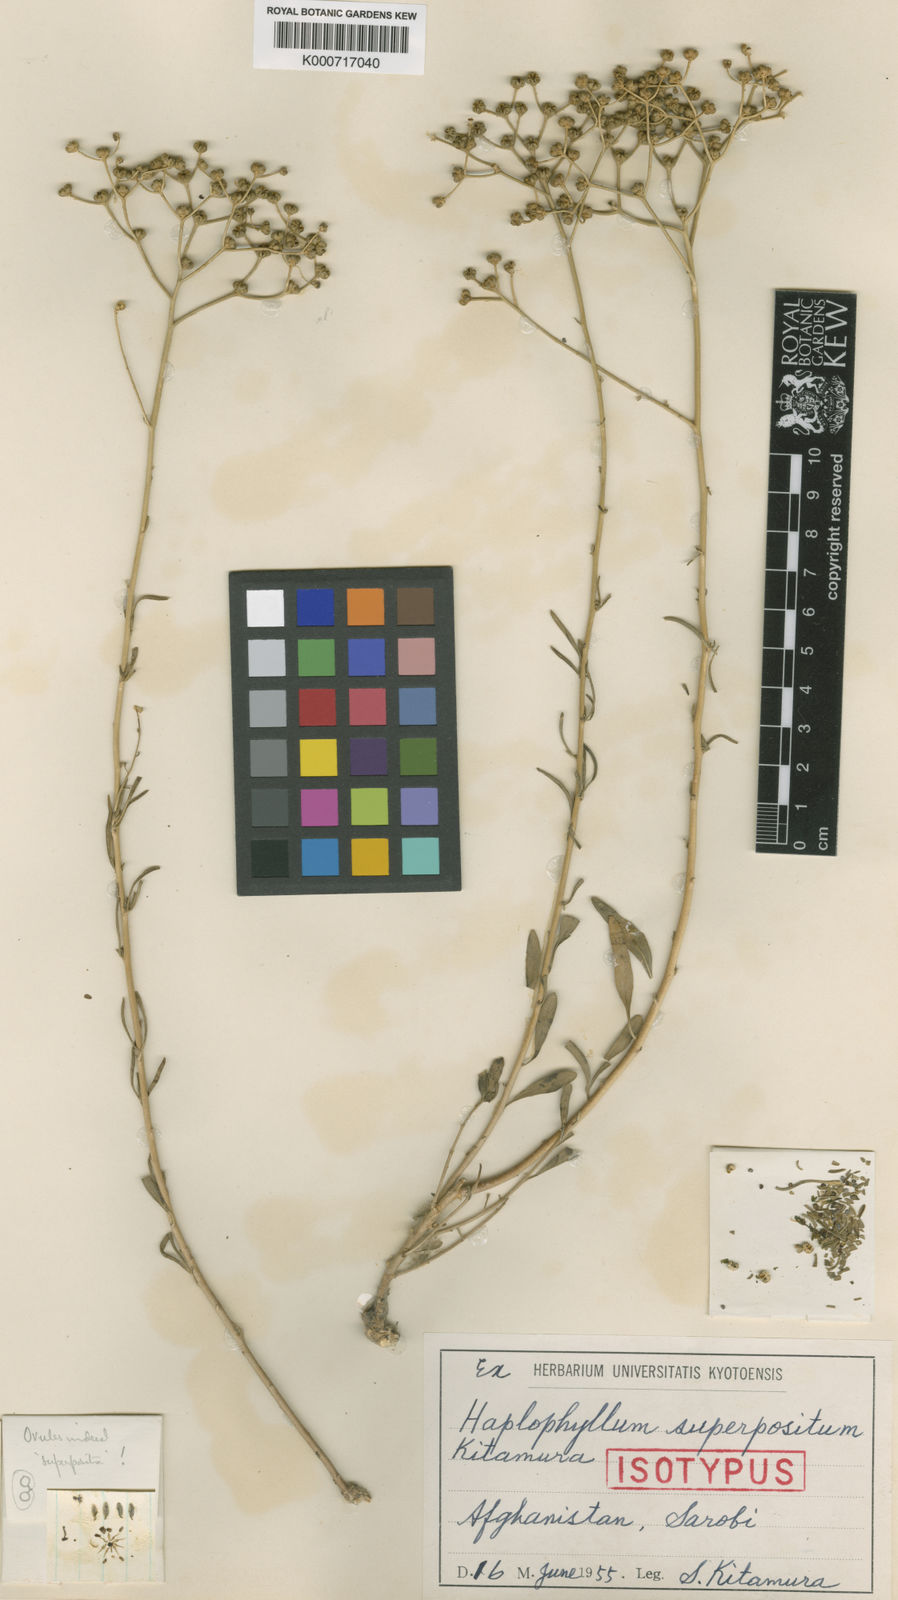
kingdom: Plantae
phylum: Tracheophyta
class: Magnoliopsida
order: Sapindales
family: Rutaceae
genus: Haplophyllum
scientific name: Haplophyllum dubium
